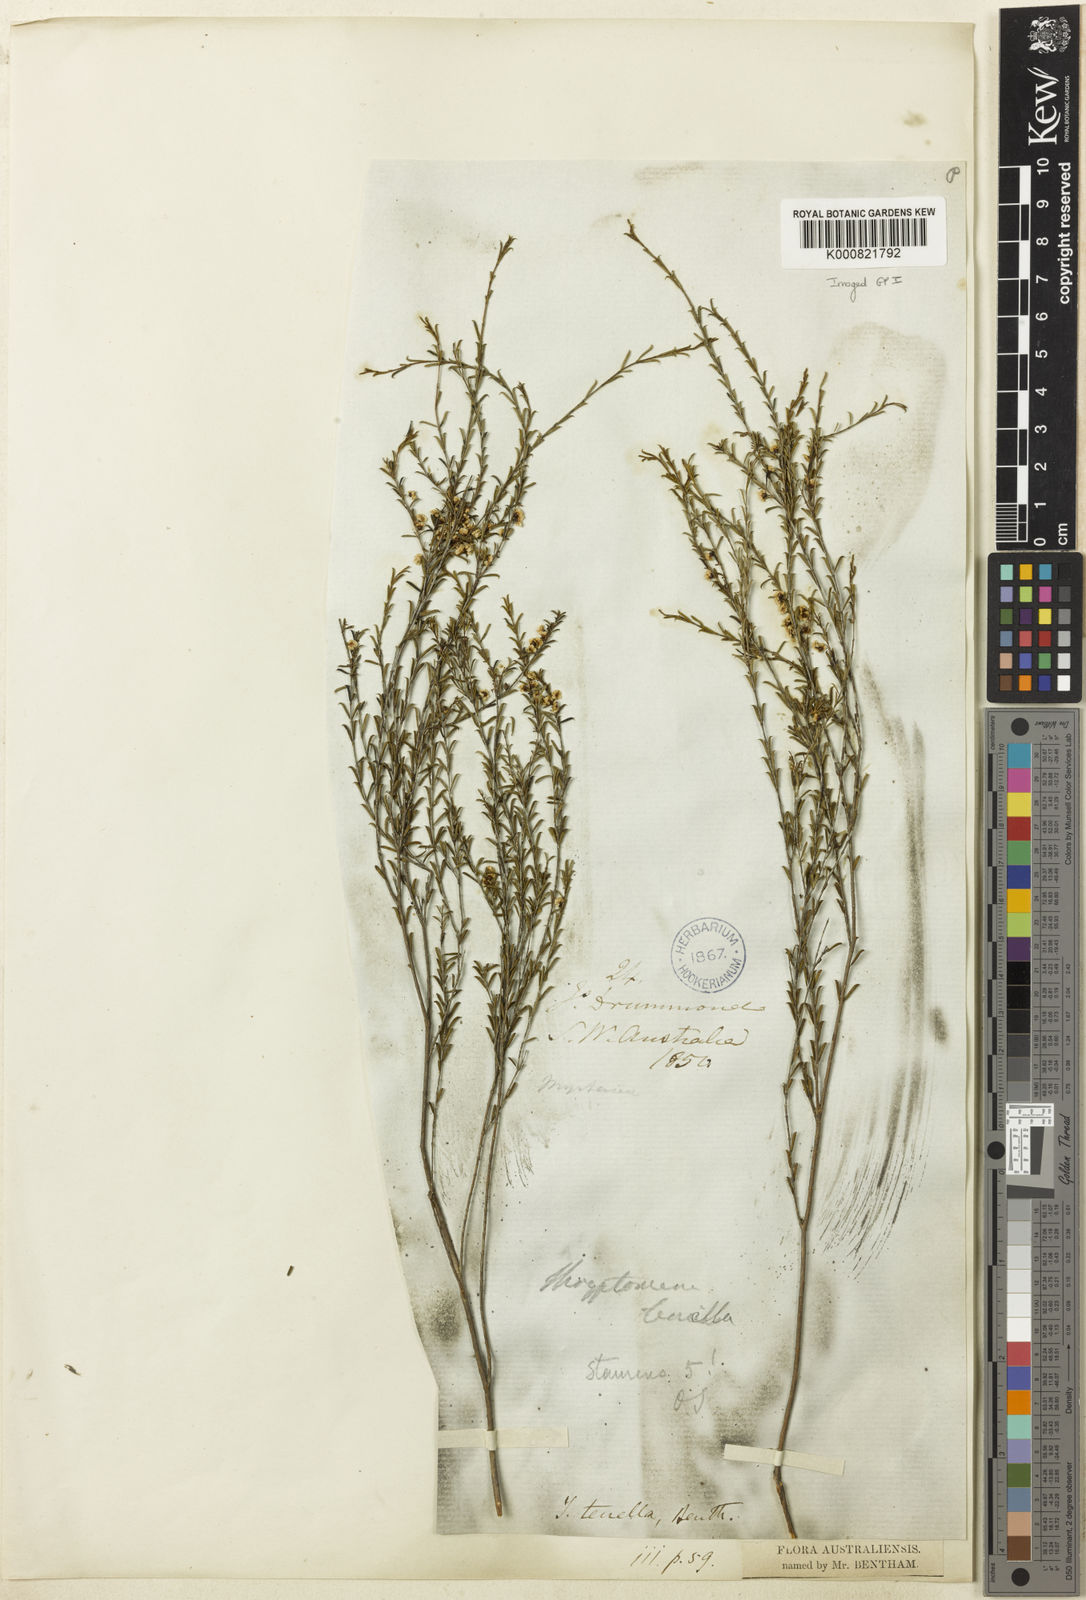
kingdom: Plantae
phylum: Tracheophyta
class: Magnoliopsida
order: Myrtales
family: Myrtaceae
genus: Thryptomene
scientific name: Thryptomene cuspidata
